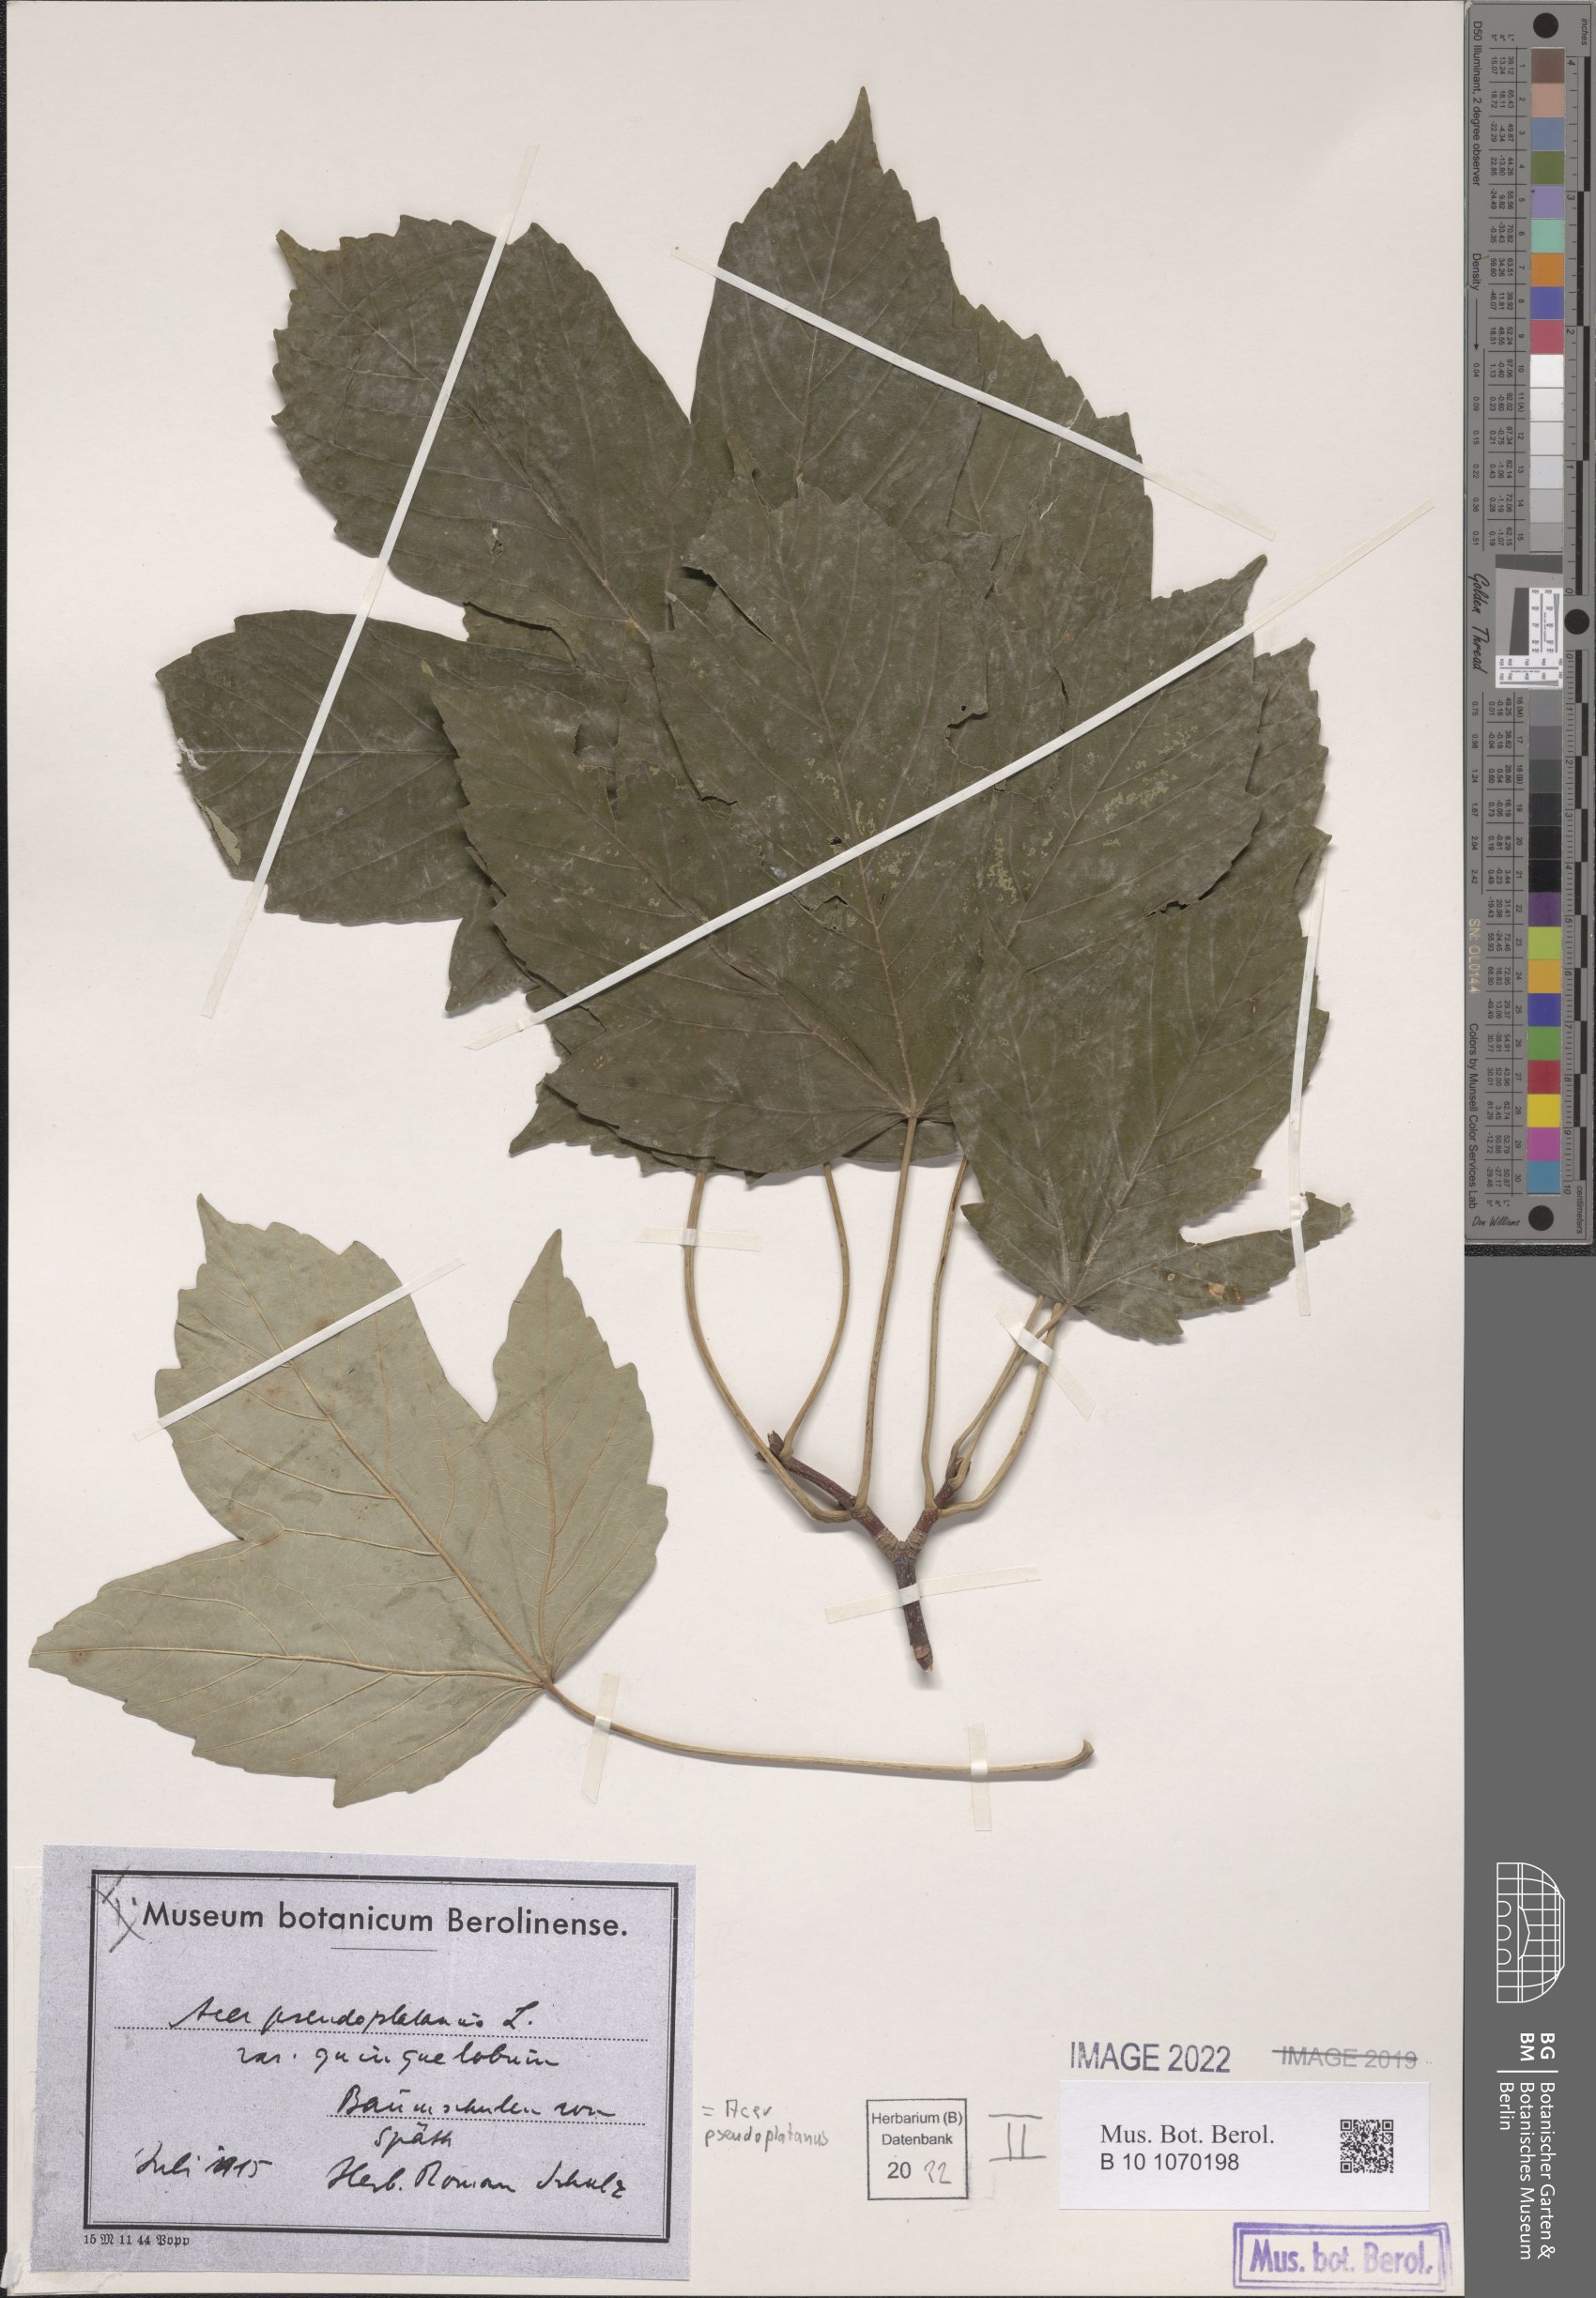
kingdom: Plantae
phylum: Tracheophyta
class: Magnoliopsida
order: Sapindales
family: Sapindaceae
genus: Acer
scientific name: Acer pseudoplatanus
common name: Sycamore
